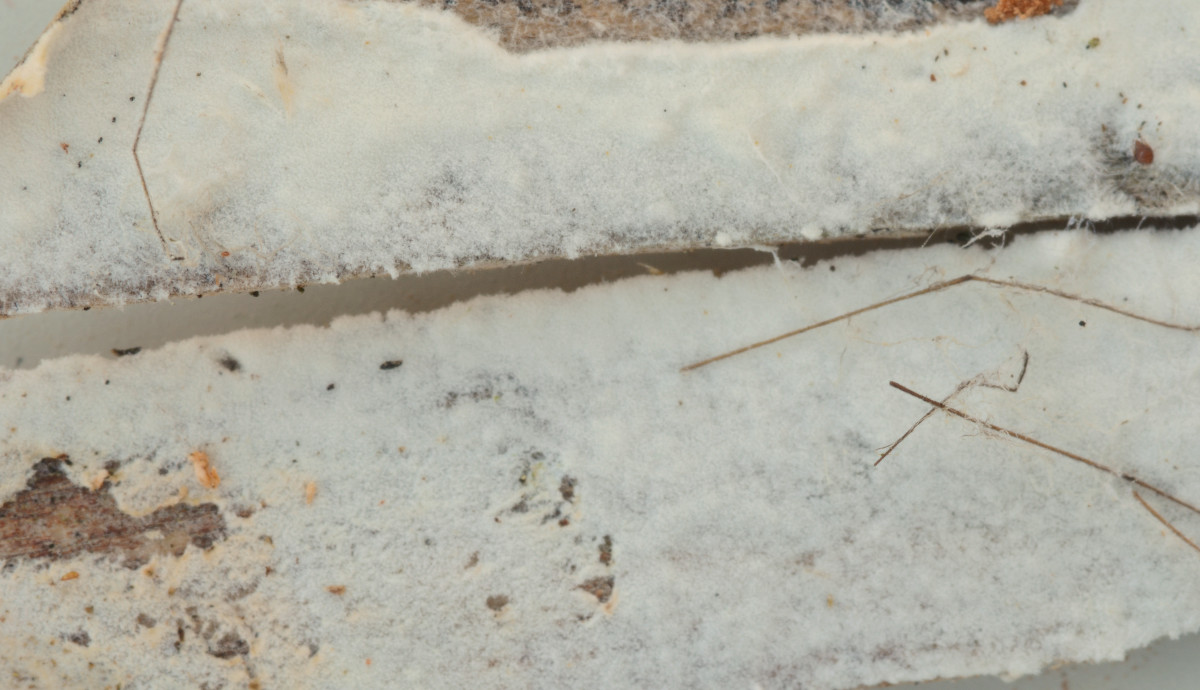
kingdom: Fungi
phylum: Basidiomycota
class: Atractiellomycetes
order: Atractiellales
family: Phleogenaceae
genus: Saccosoma
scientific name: Saccosoma farinaceum
